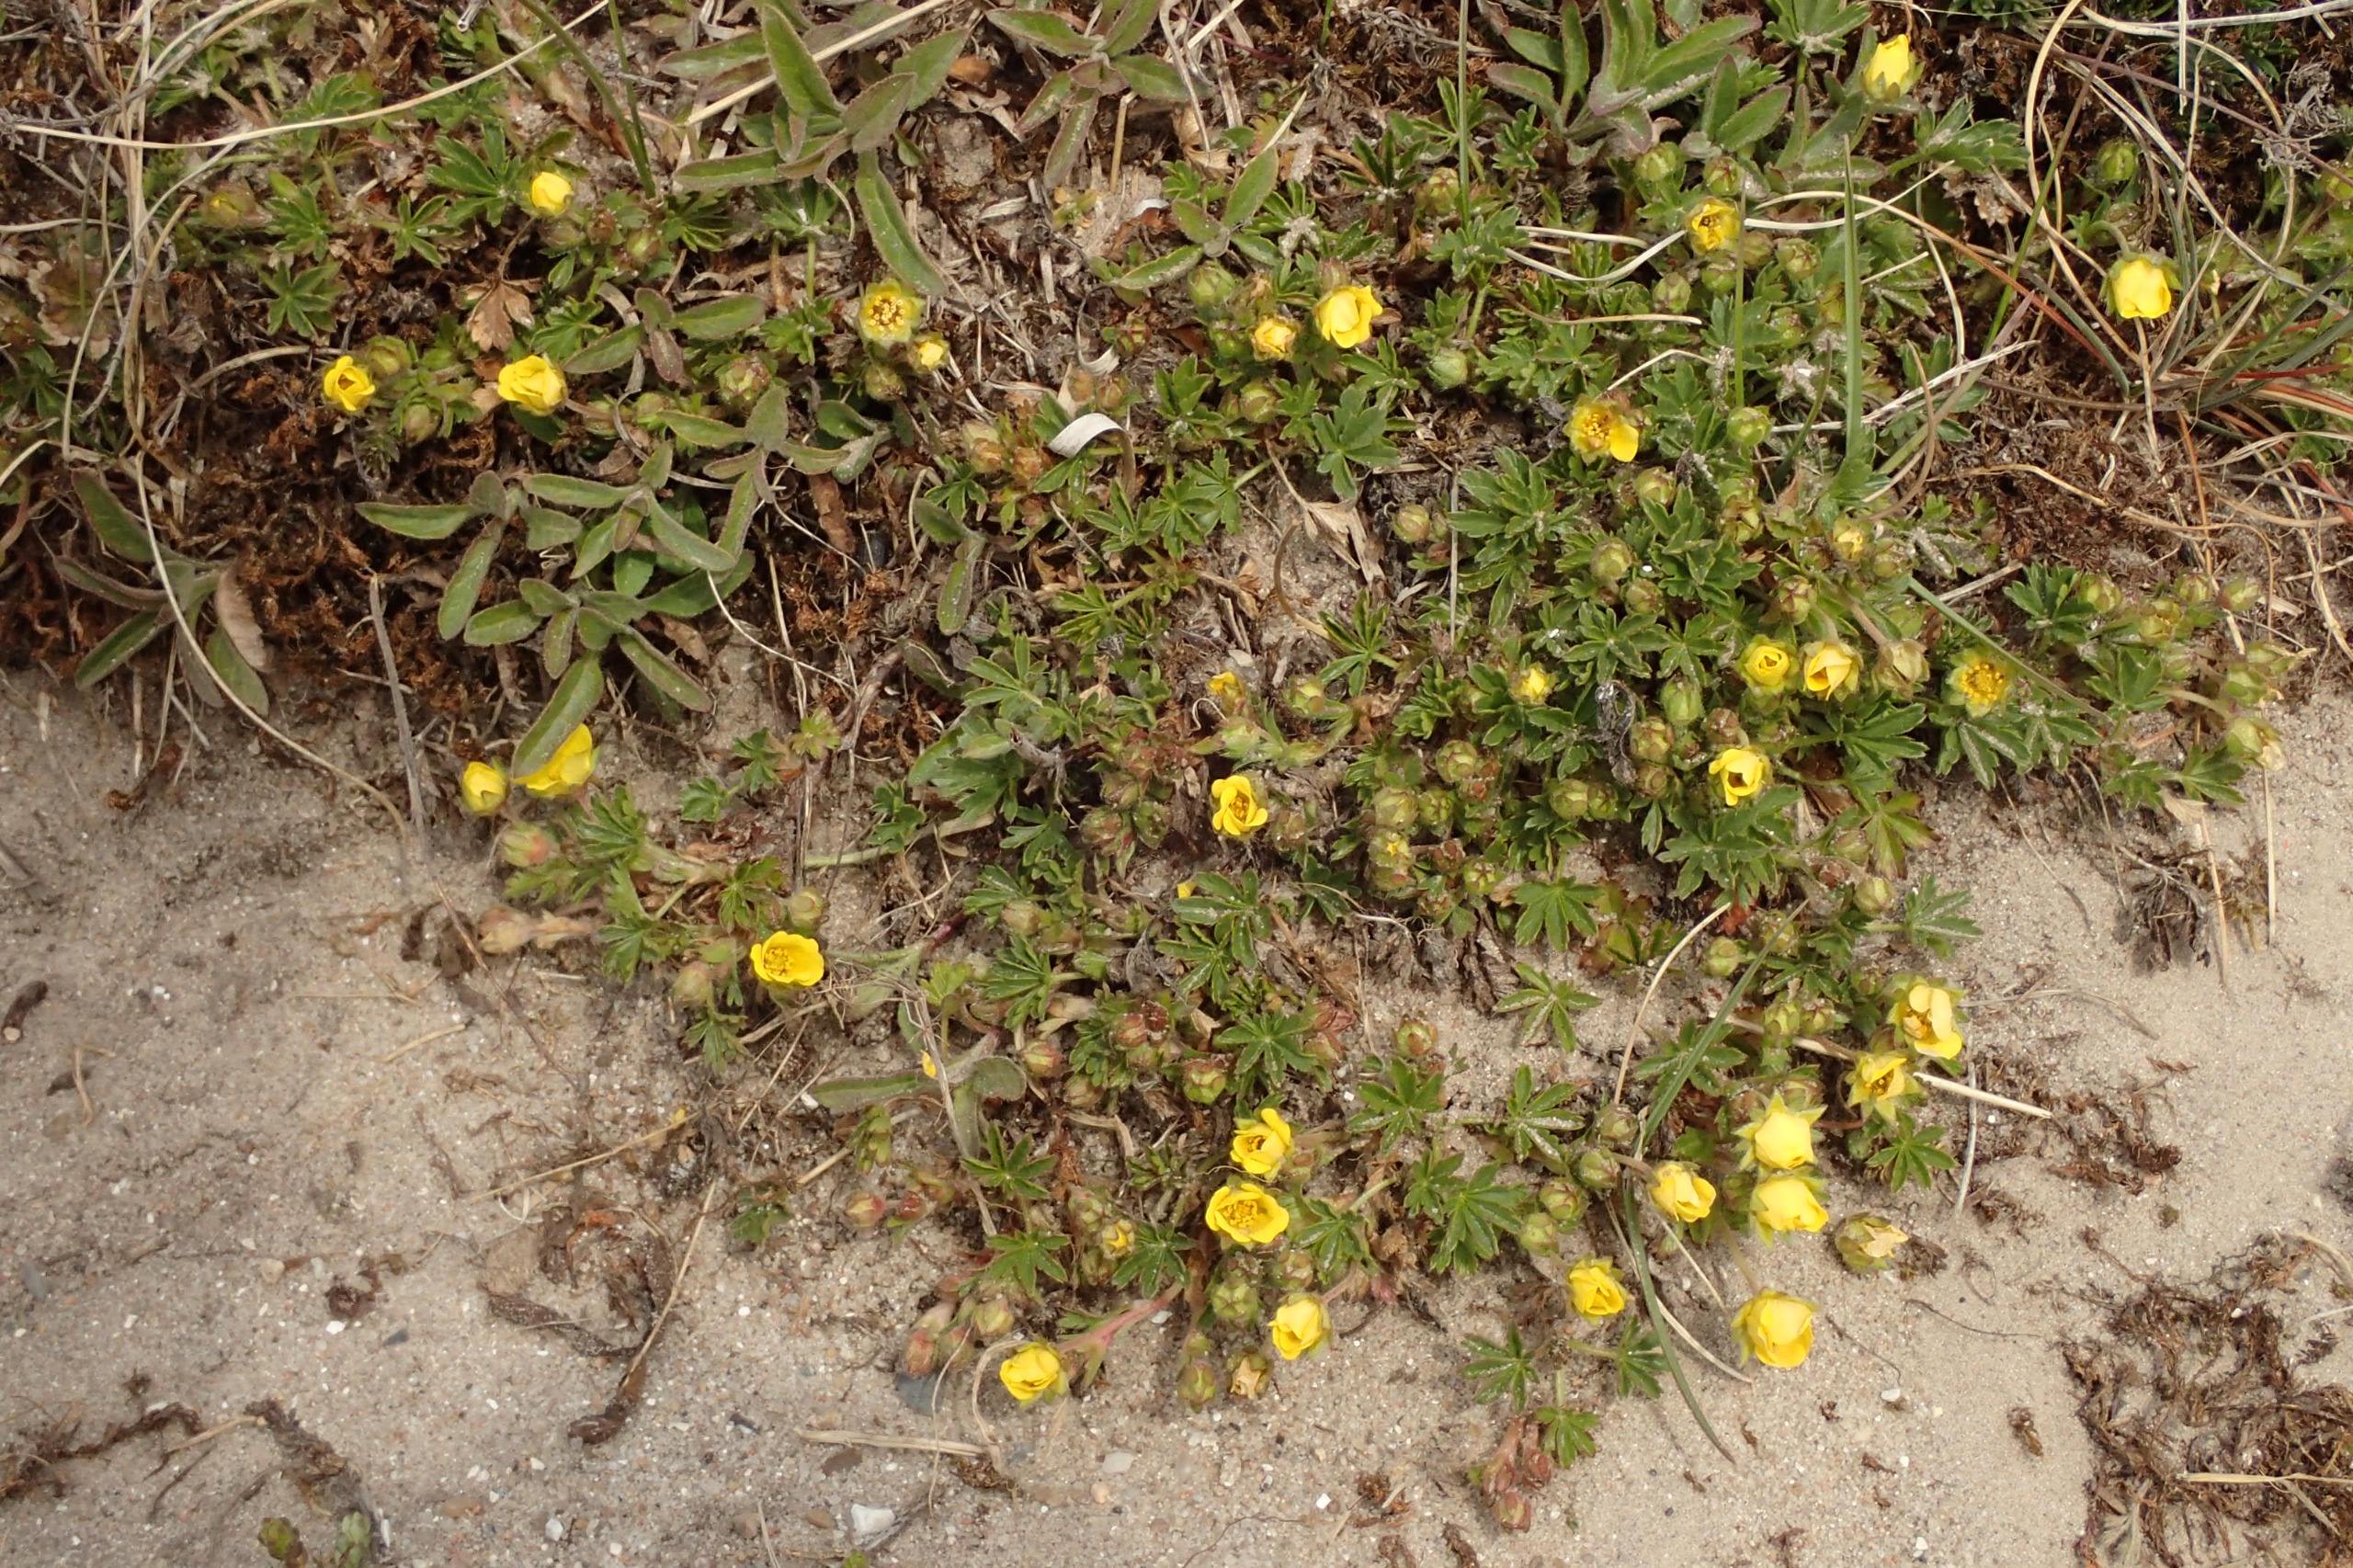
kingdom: Plantae
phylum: Tracheophyta
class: Magnoliopsida
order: Rosales
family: Rosaceae
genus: Potentilla
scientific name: Potentilla verna
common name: Vår-potentil
